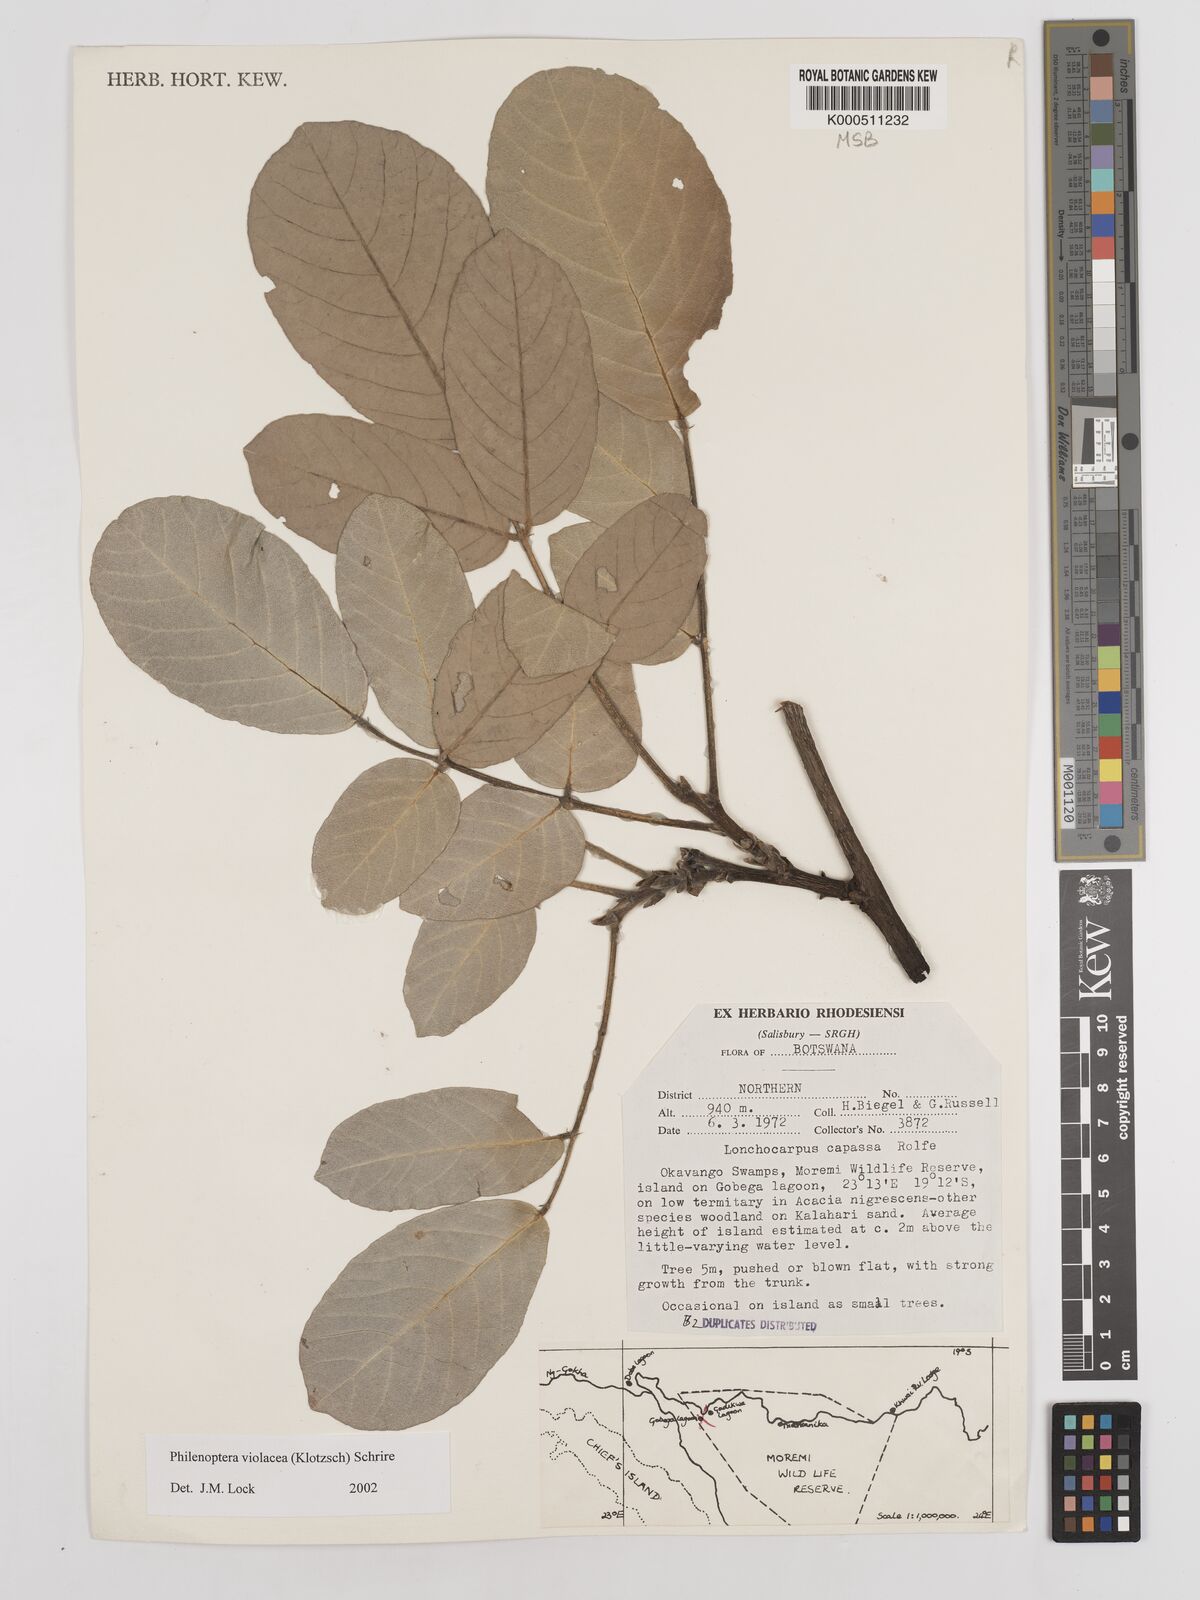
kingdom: Plantae
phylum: Tracheophyta
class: Magnoliopsida
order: Fabales
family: Fabaceae
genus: Philenoptera
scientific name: Philenoptera violacea
